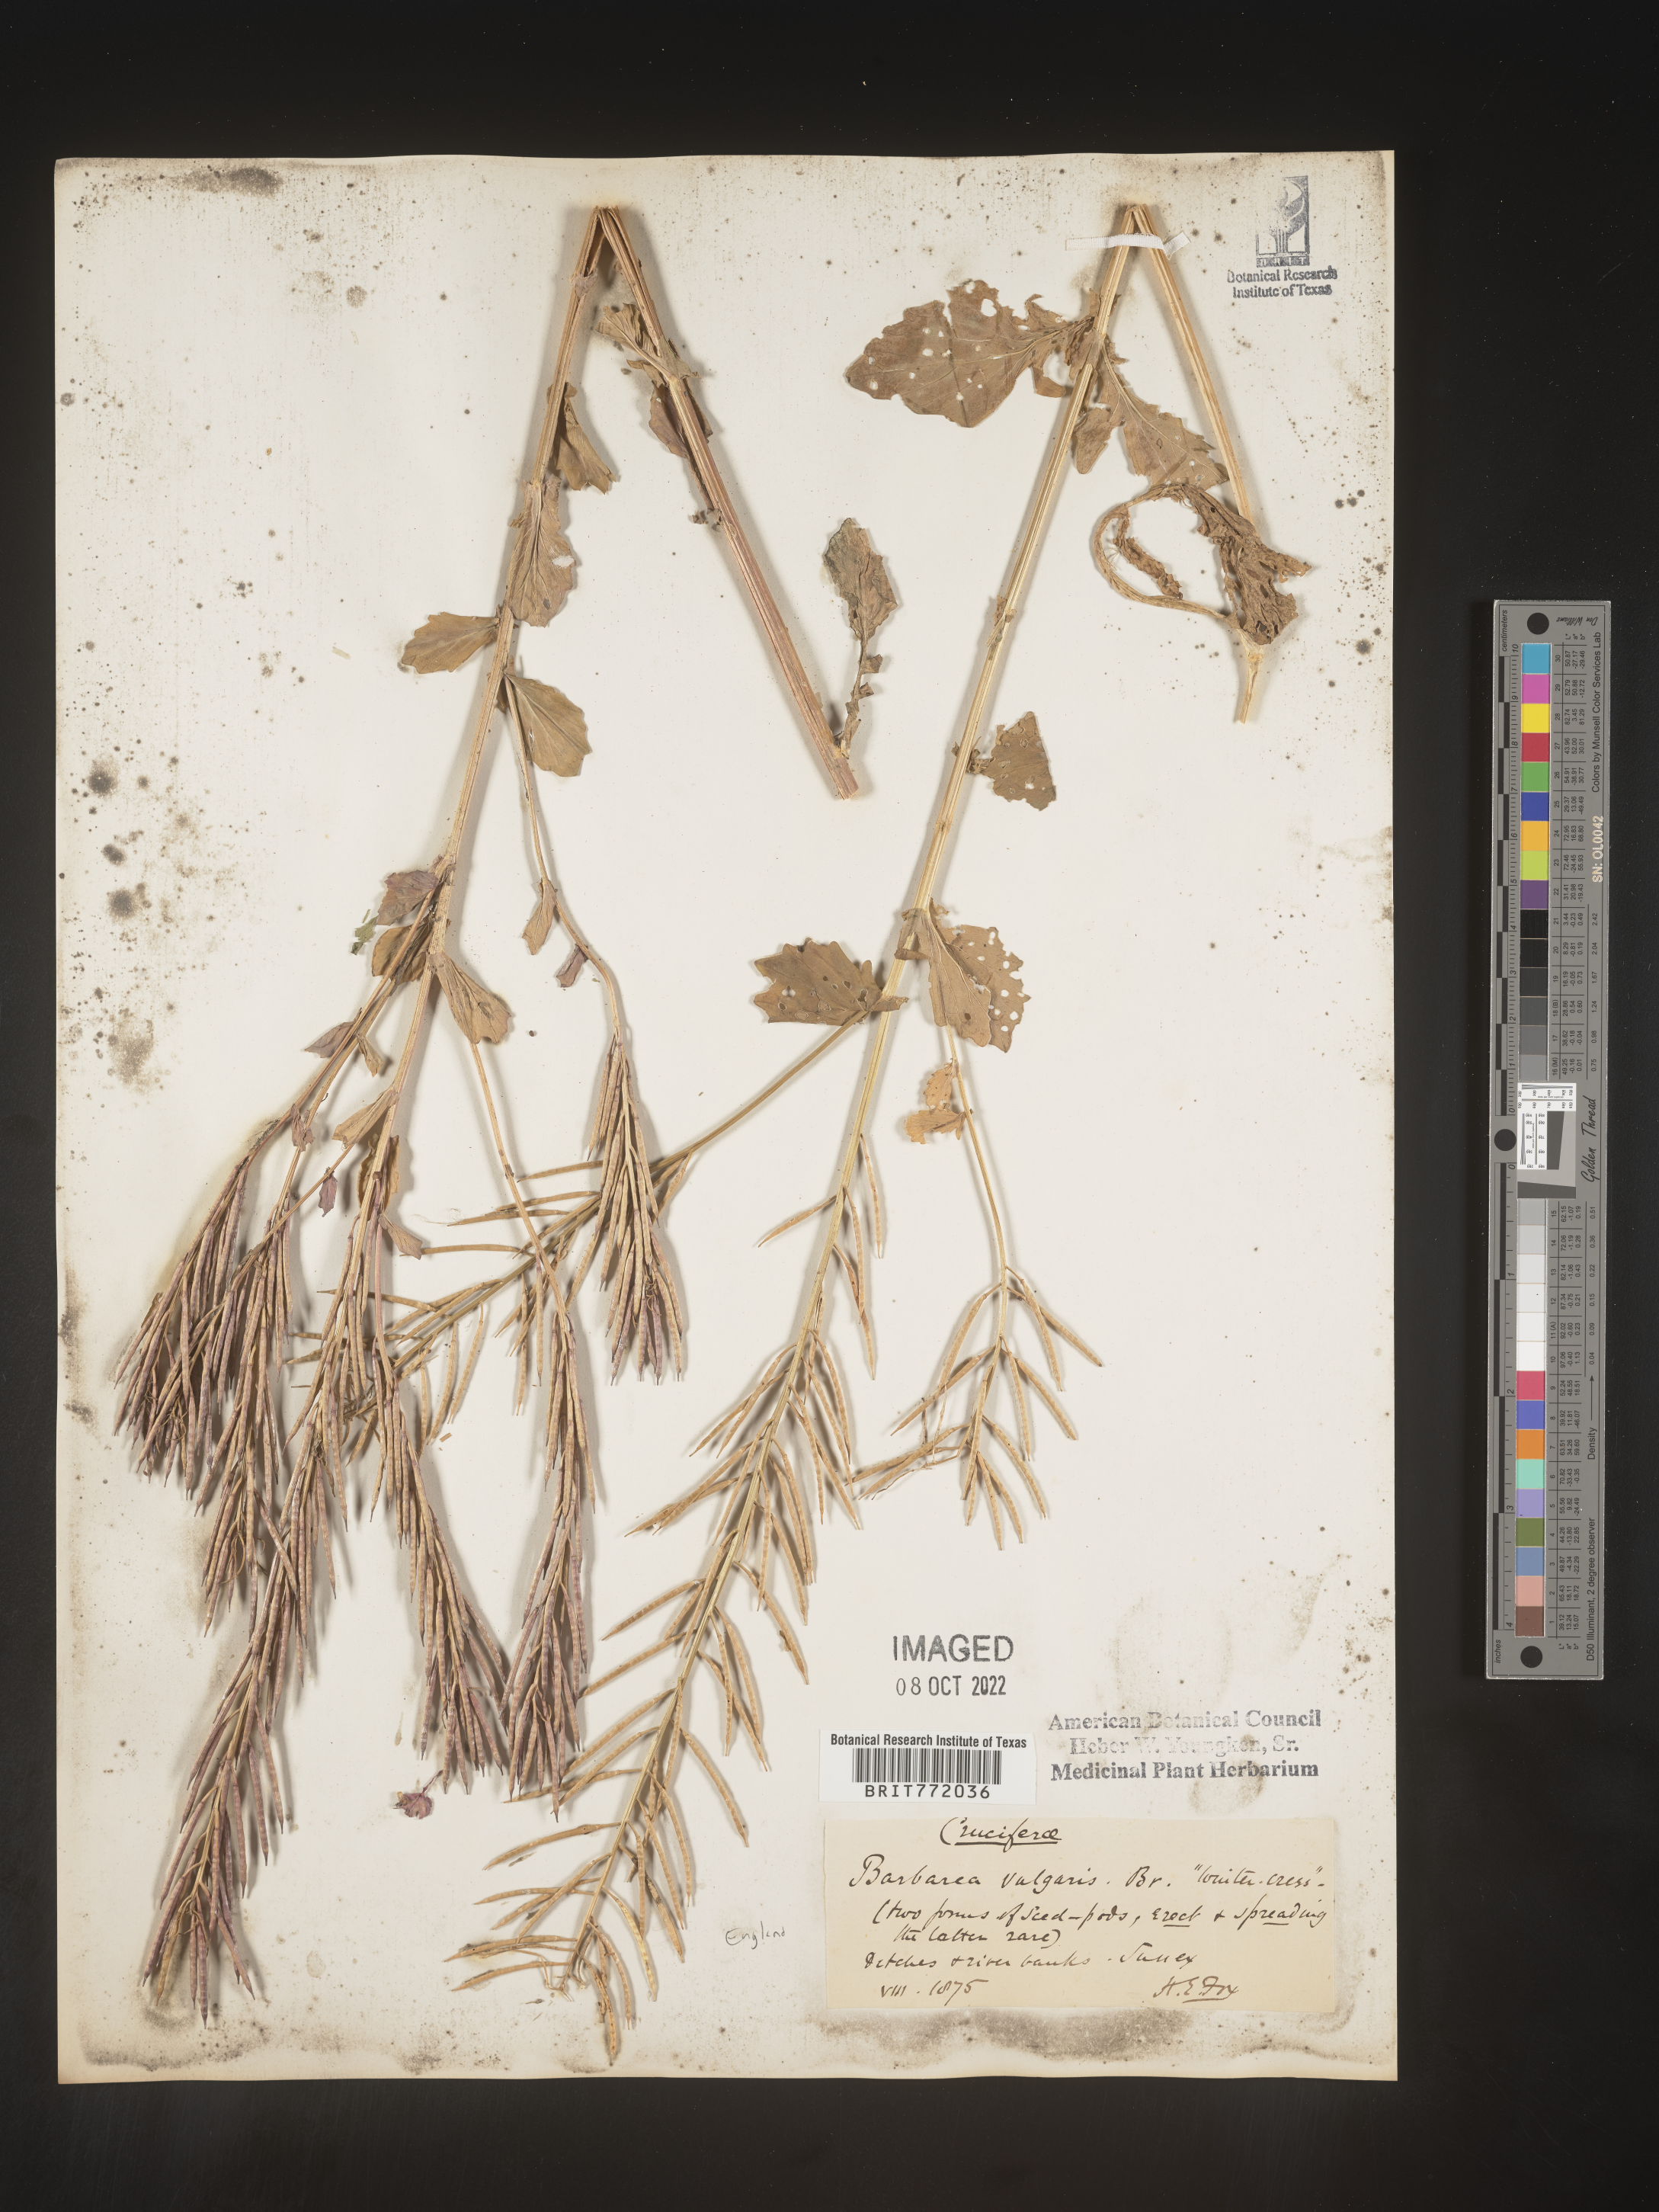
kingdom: Plantae
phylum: Tracheophyta
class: Magnoliopsida
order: Brassicales
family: Brassicaceae
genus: Barbarea
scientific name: Barbarea
